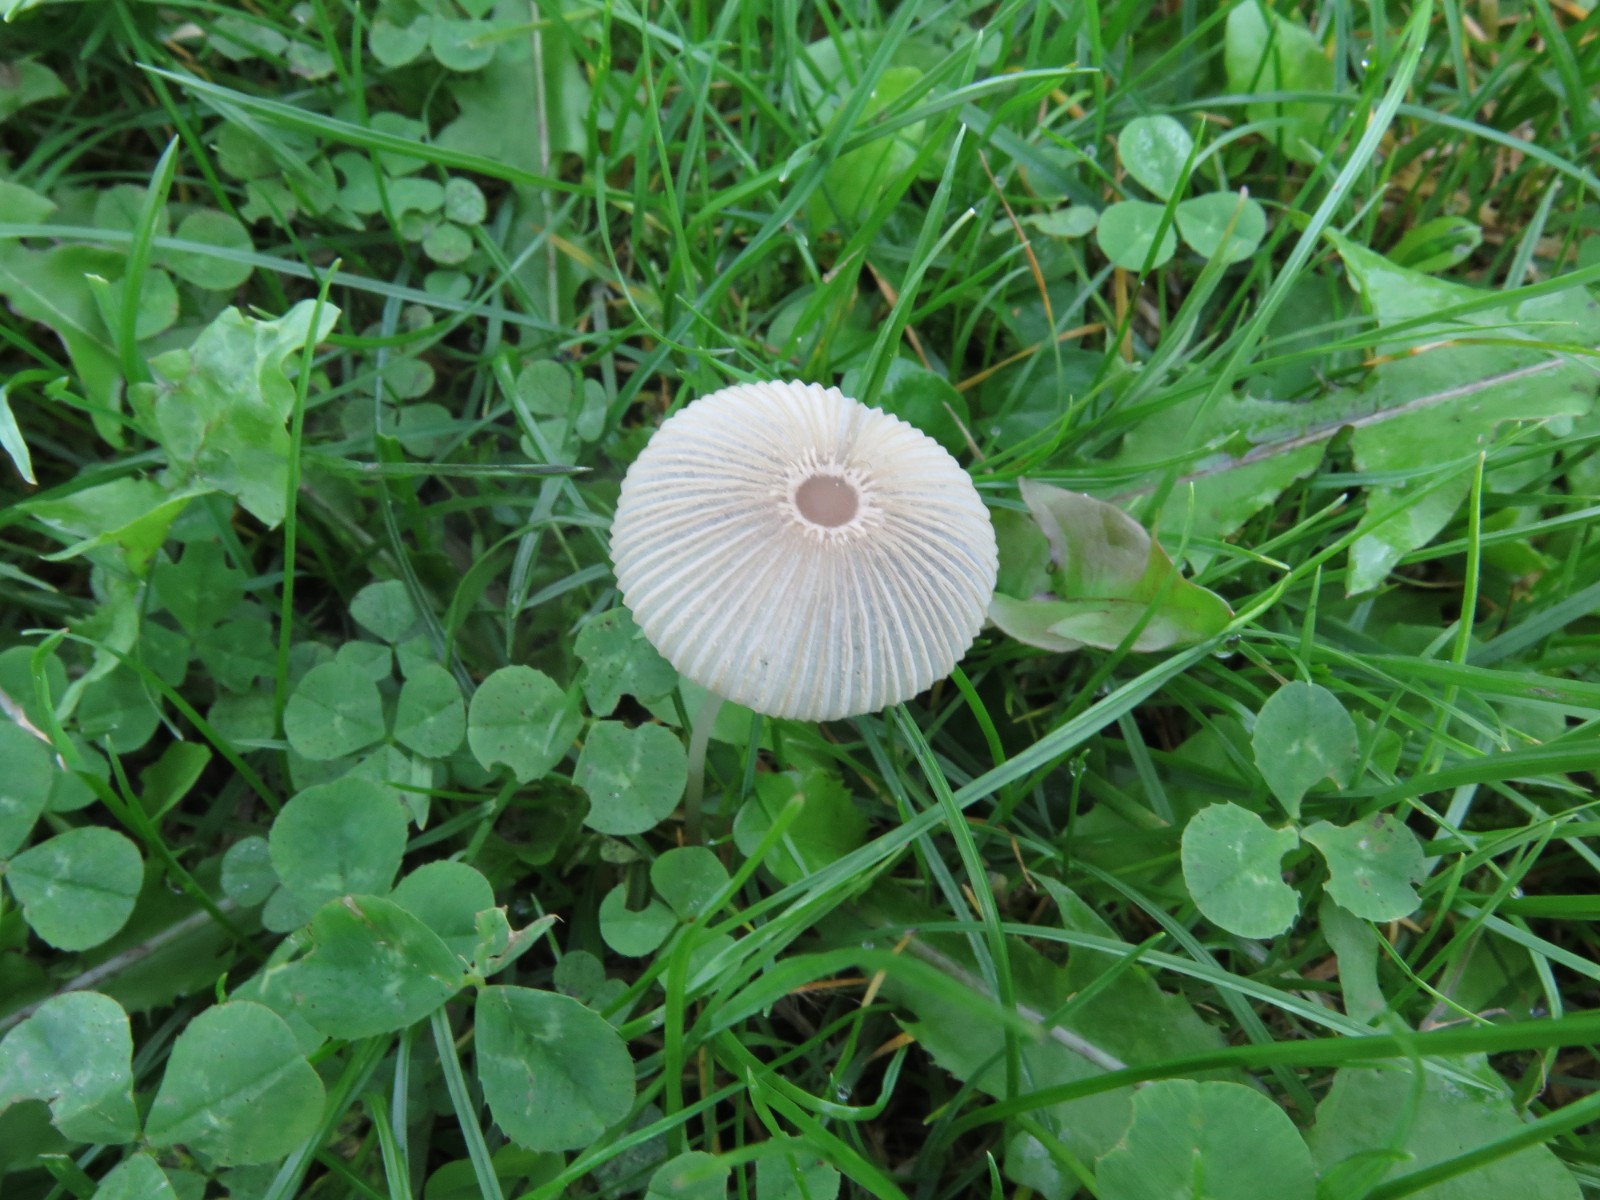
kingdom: Fungi
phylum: Basidiomycota
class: Agaricomycetes
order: Agaricales
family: Psathyrellaceae
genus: Parasola
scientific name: Parasola plicatilis
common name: plæne-hjulhat
